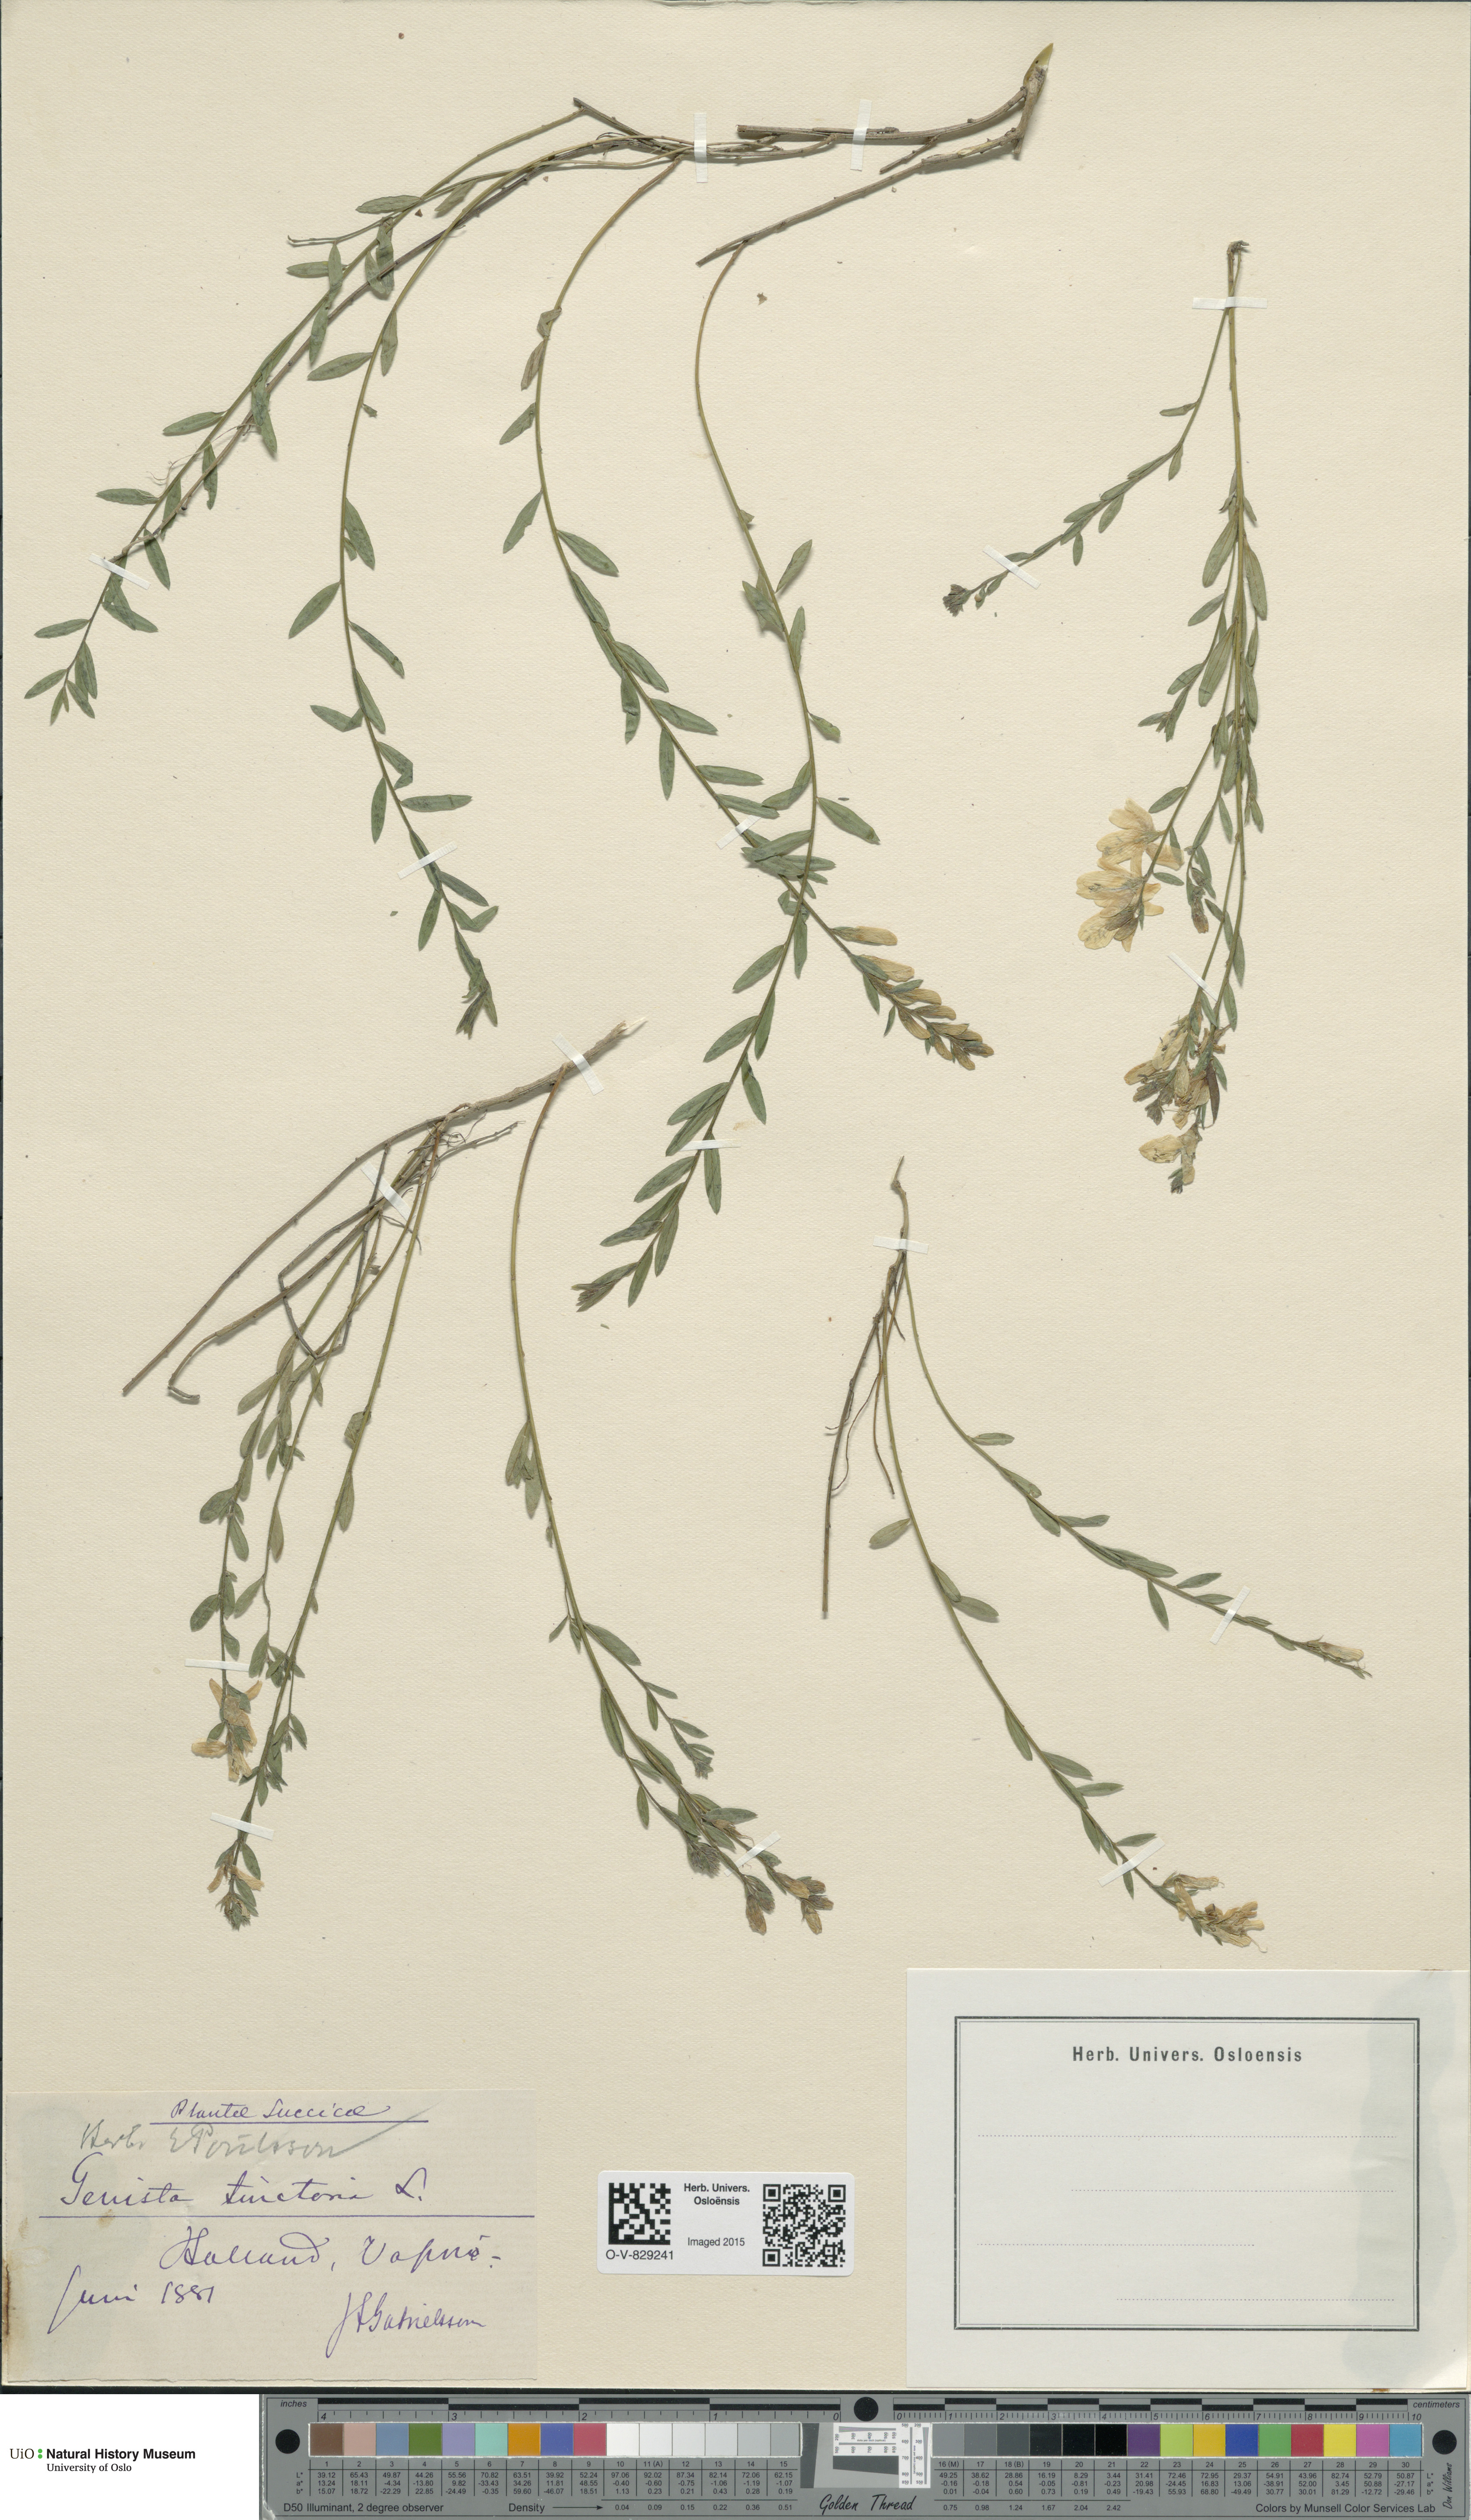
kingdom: Plantae
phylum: Tracheophyta
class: Magnoliopsida
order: Fabales
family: Fabaceae
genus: Genista
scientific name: Genista tinctoria
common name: Dyer's greenweed
